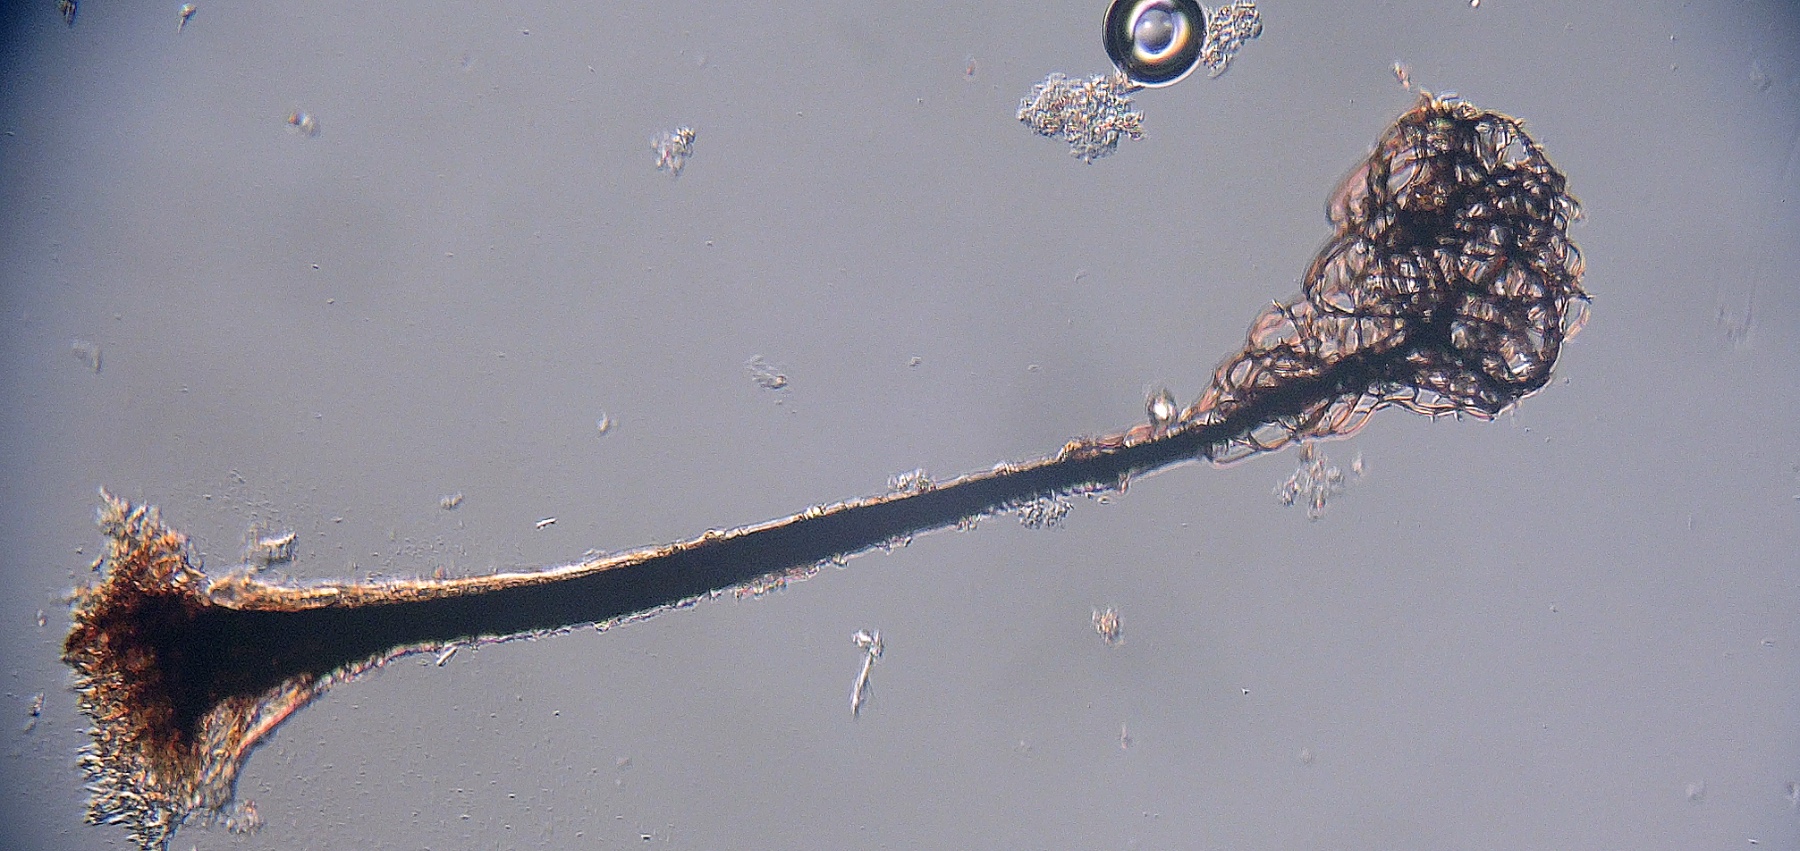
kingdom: Protozoa
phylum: Mycetozoa
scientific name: Mycetozoa
